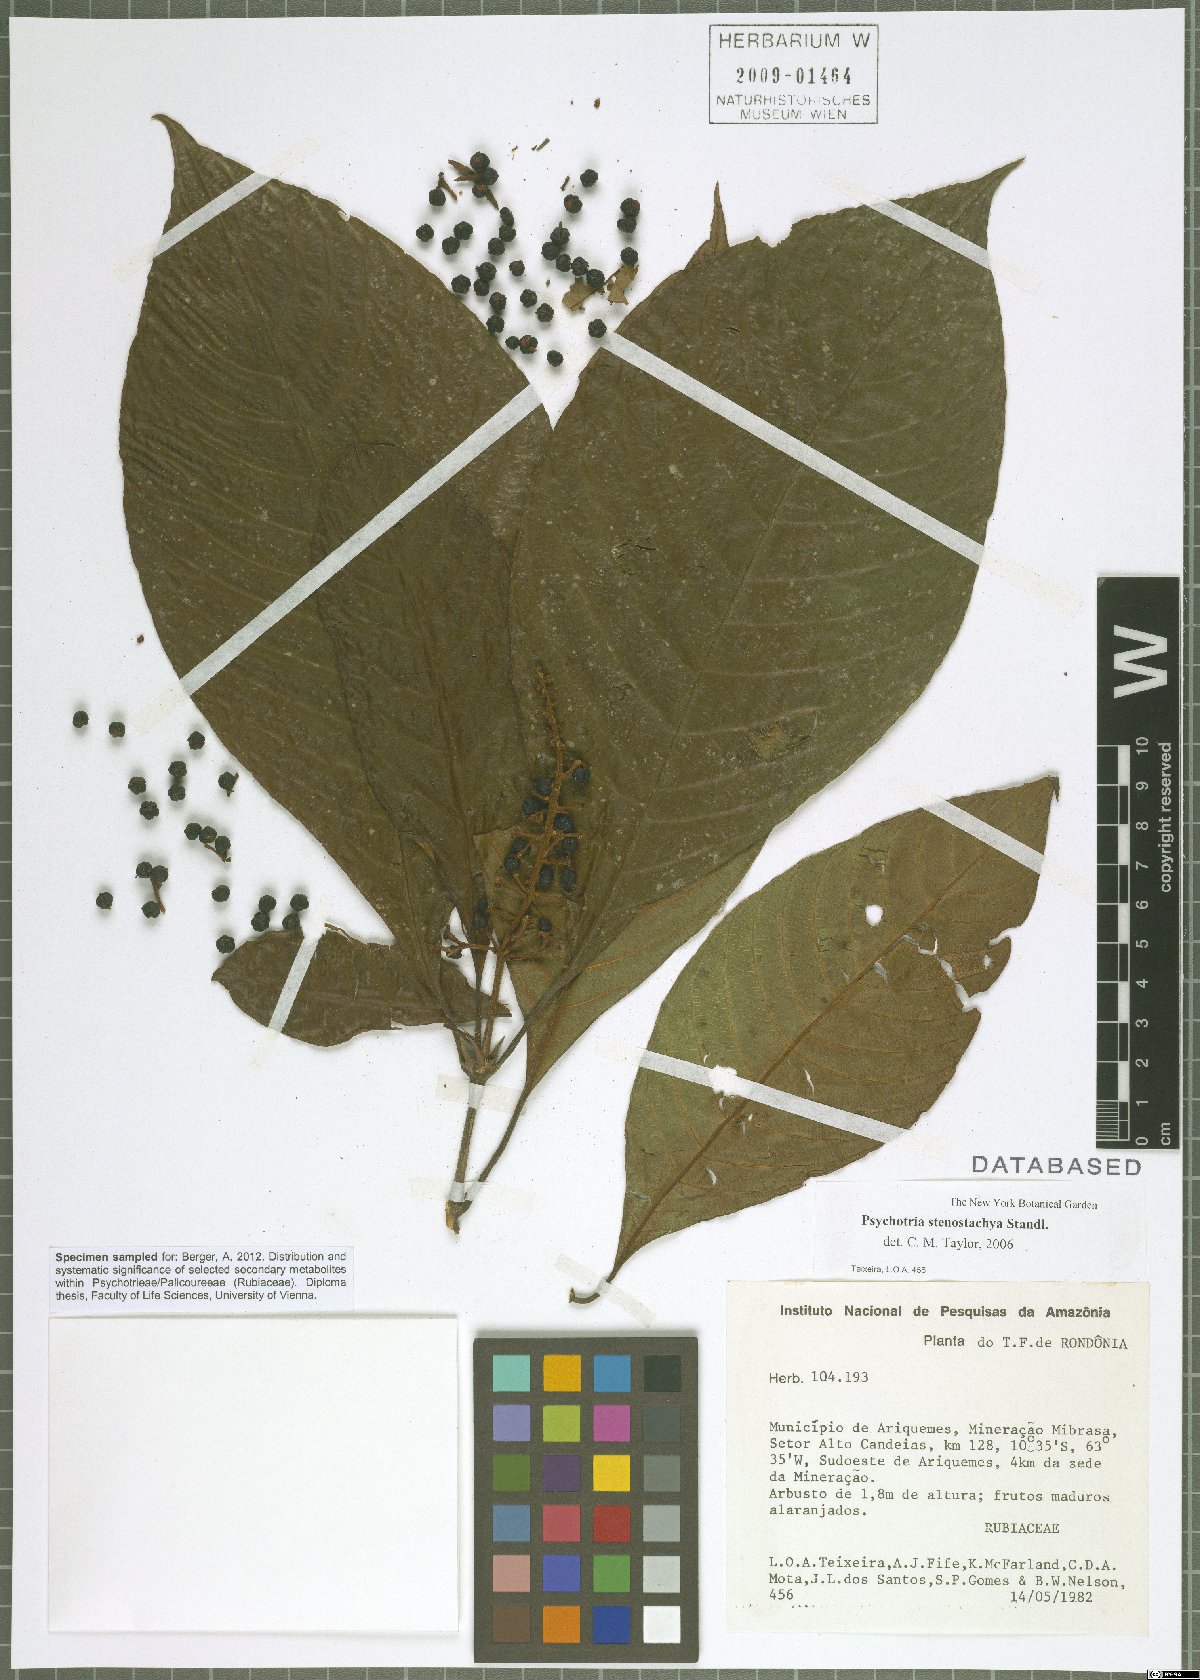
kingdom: Plantae
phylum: Tracheophyta
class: Magnoliopsida
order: Gentianales
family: Rubiaceae
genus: Palicourea
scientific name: Palicourea stenostachya
